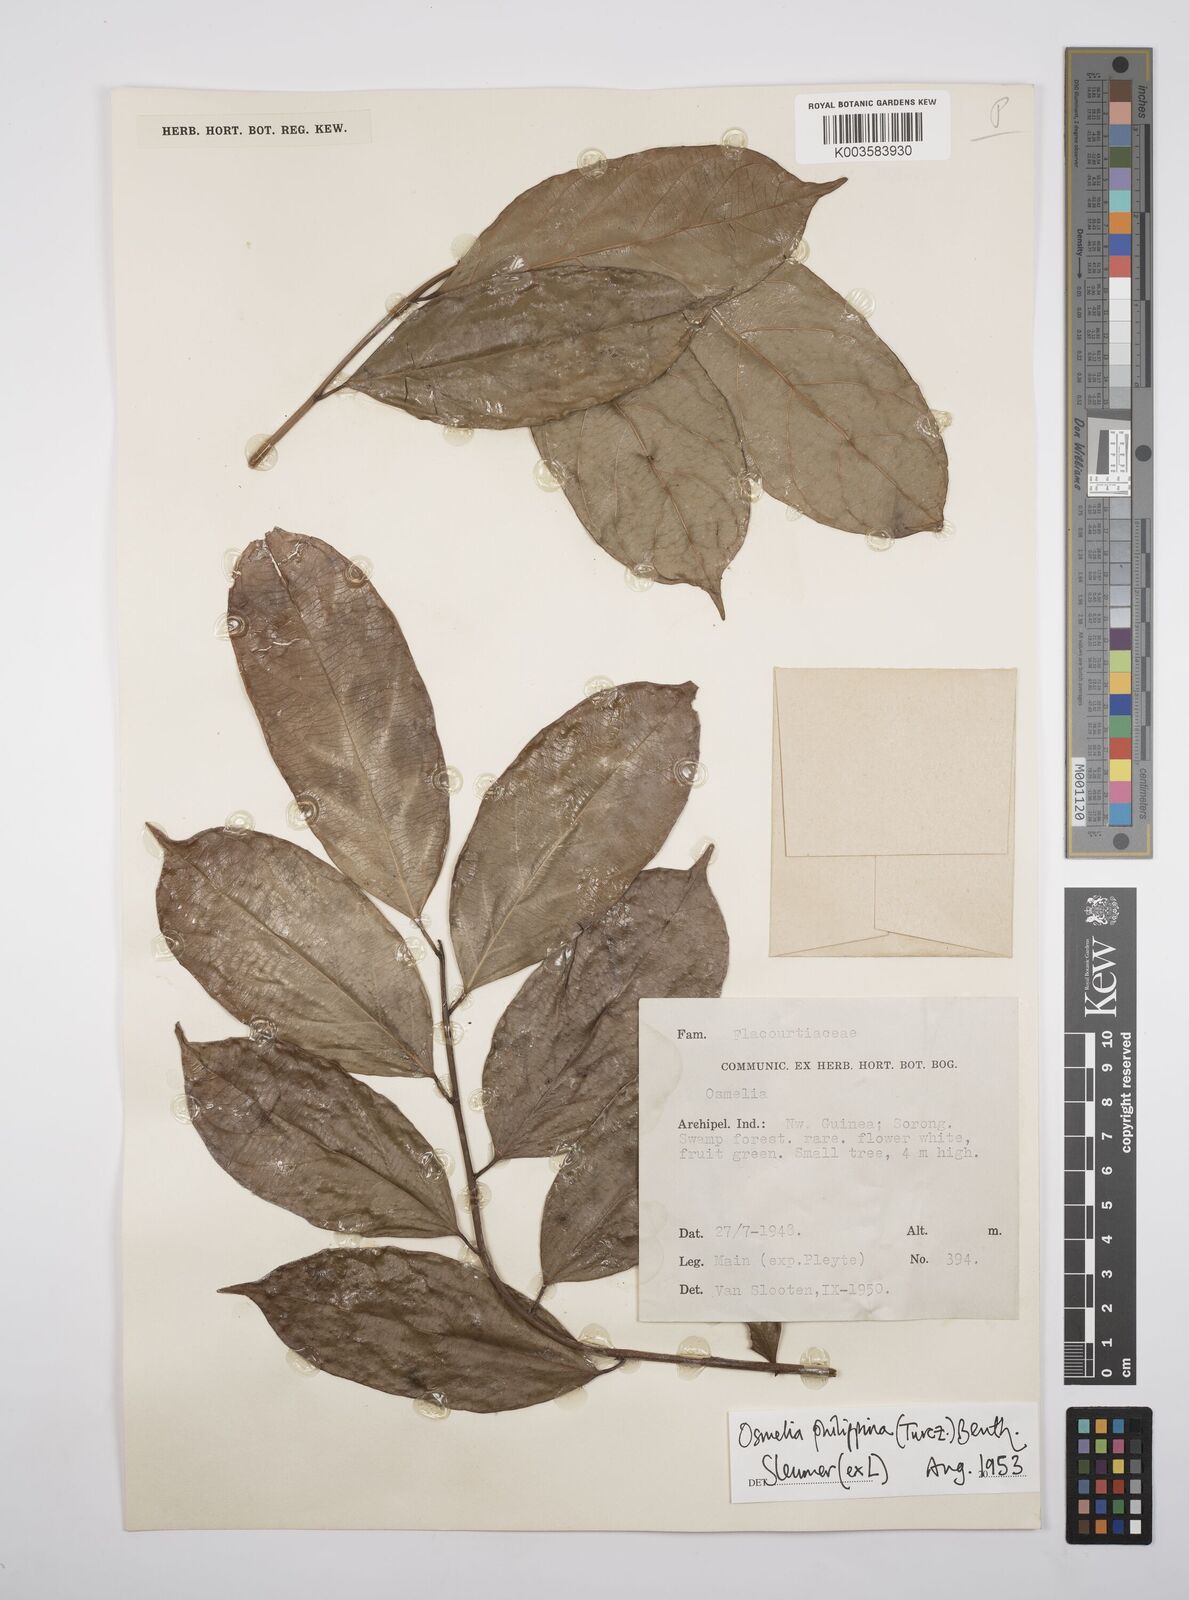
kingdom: Plantae
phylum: Tracheophyta
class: Magnoliopsida
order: Malpighiales
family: Salicaceae
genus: Osmelia
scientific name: Osmelia philippina
